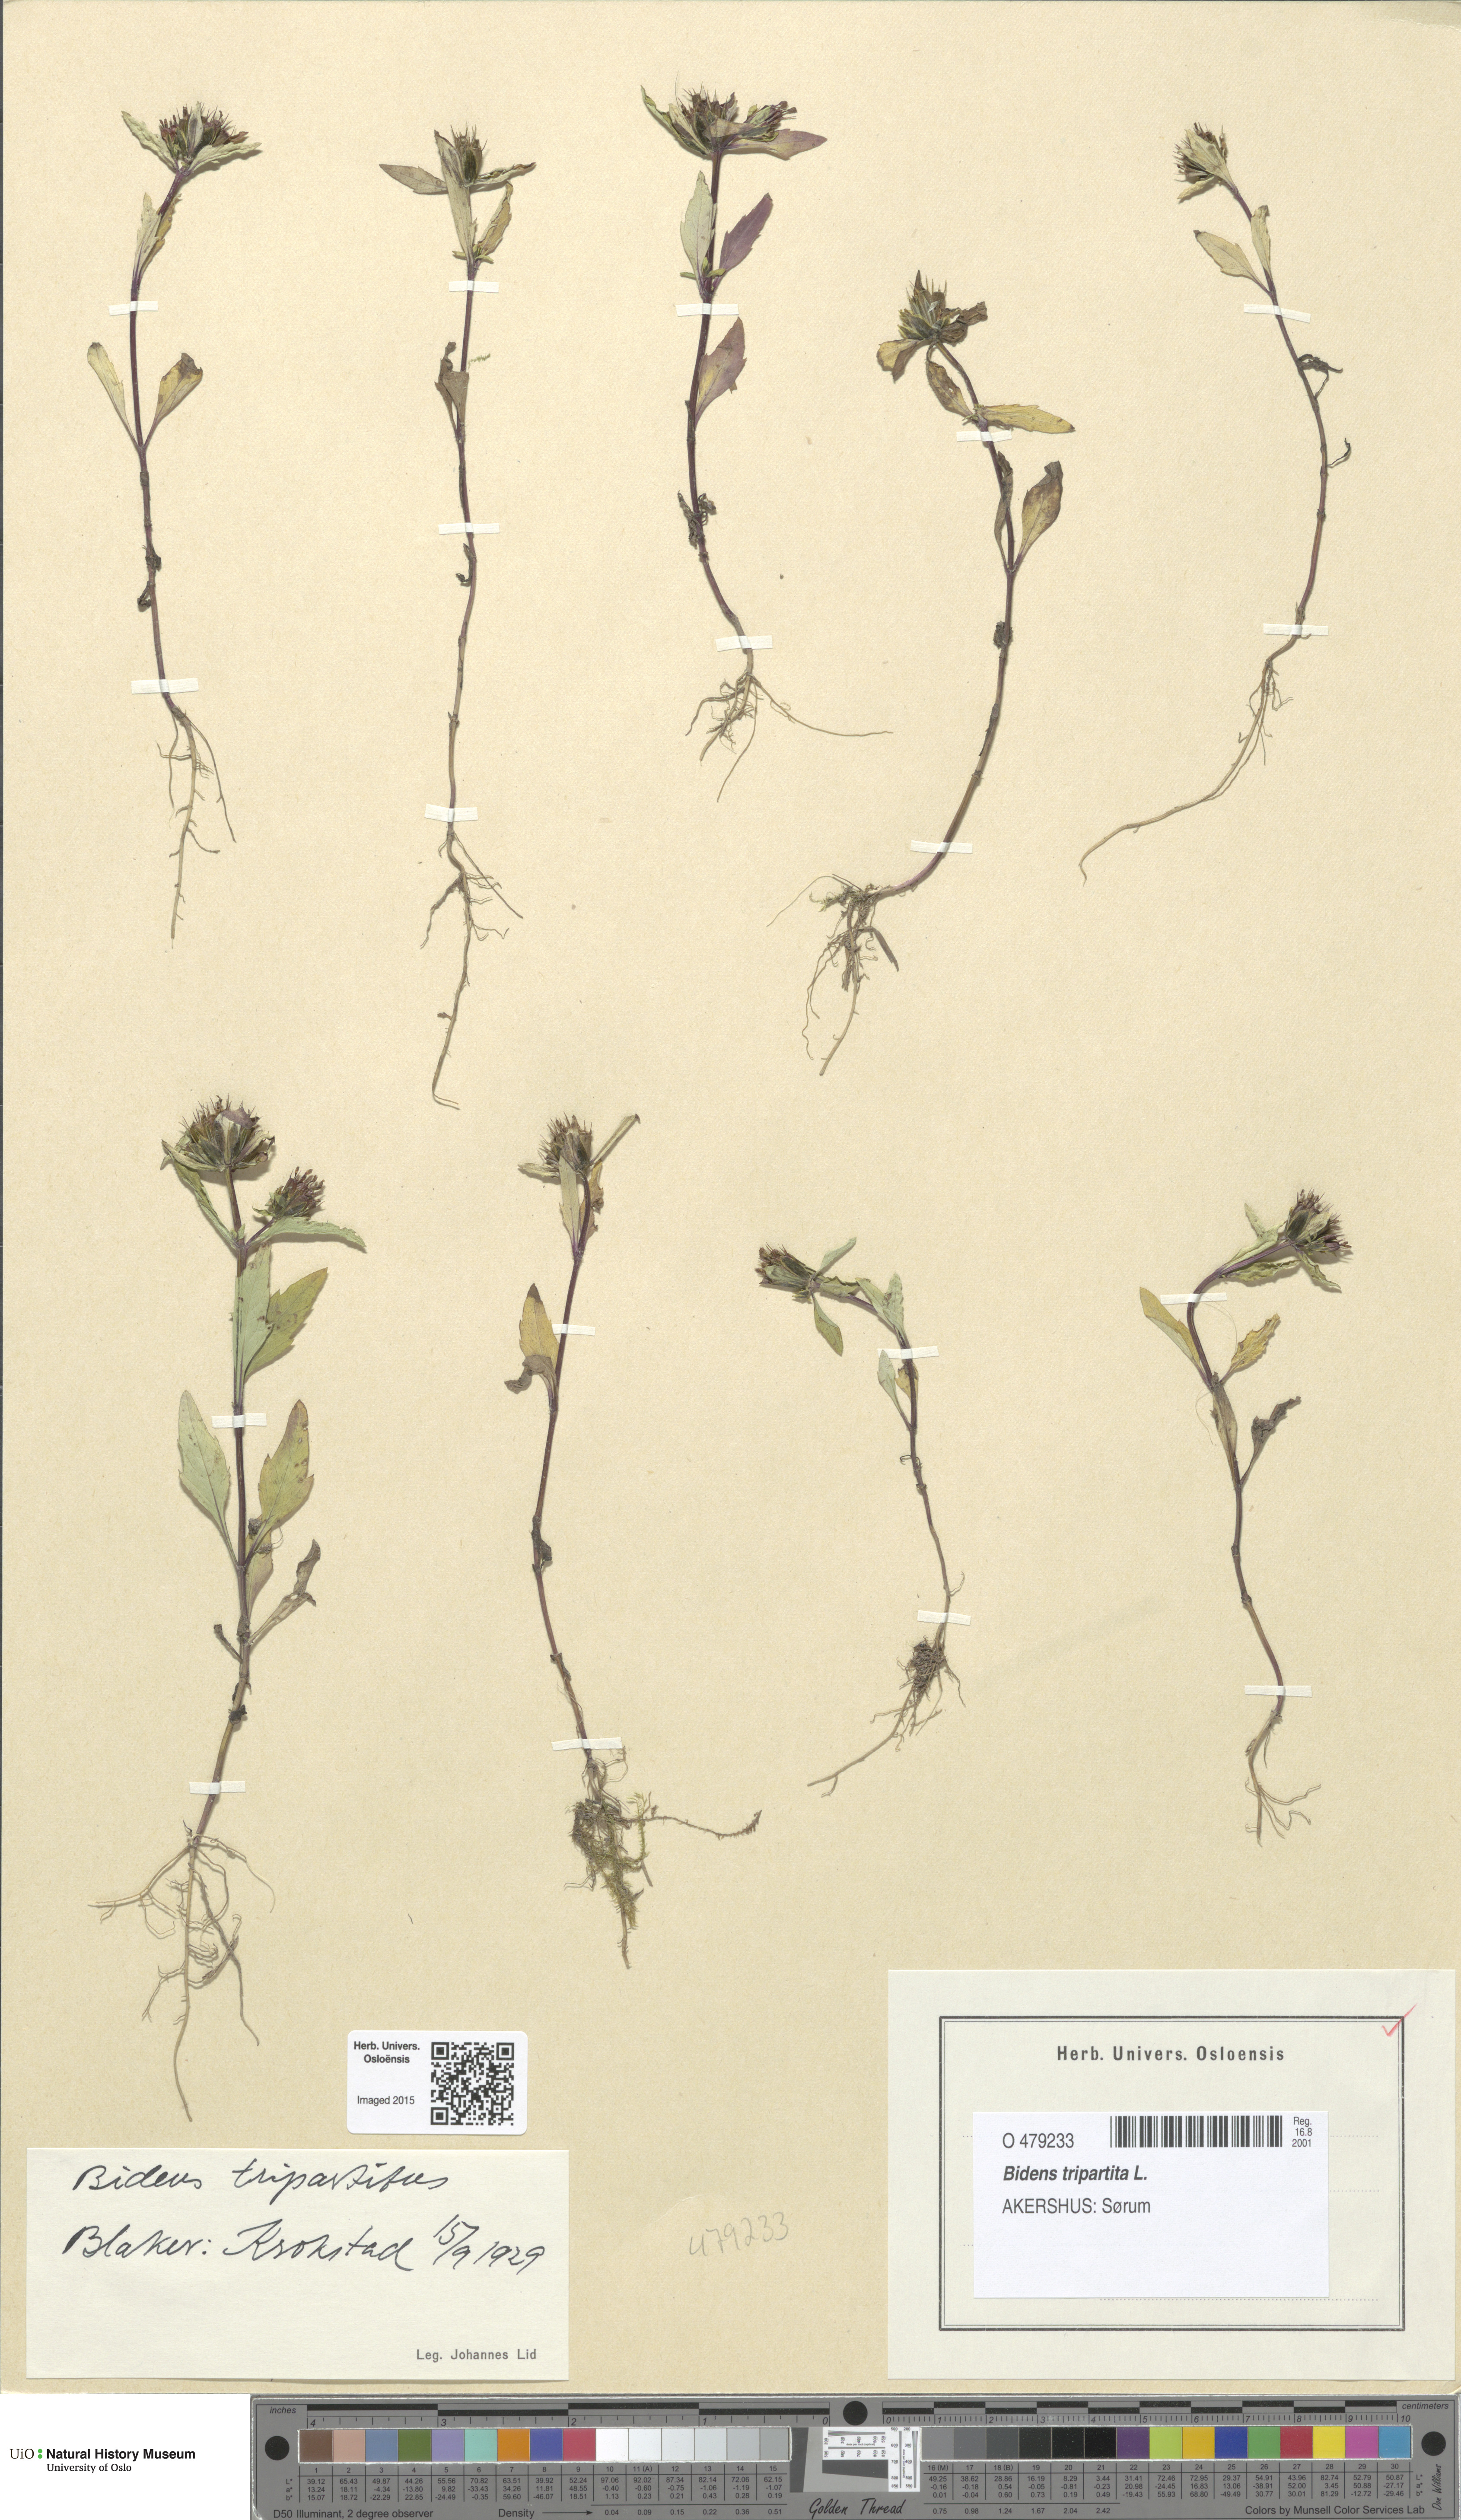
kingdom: Plantae
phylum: Tracheophyta
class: Magnoliopsida
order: Asterales
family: Asteraceae
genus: Bidens
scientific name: Bidens tripartita
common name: Trifid bur-marigold
